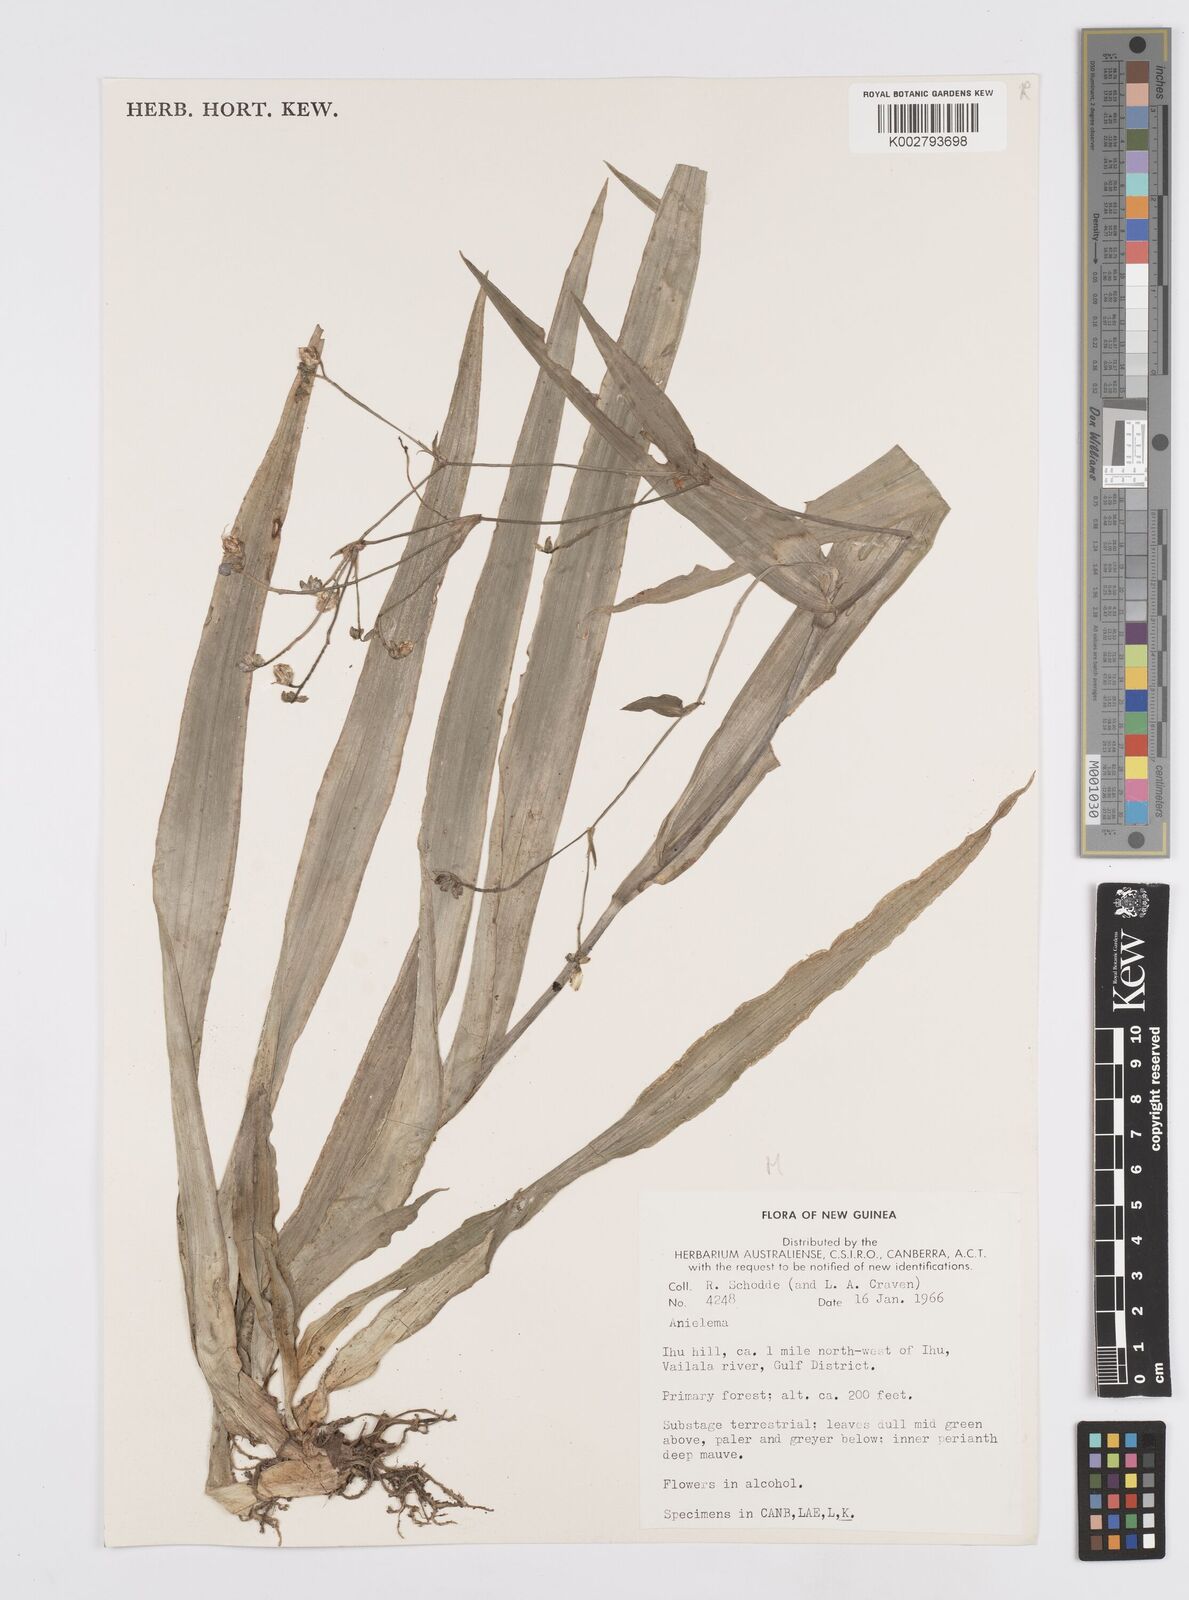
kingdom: Plantae
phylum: Tracheophyta
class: Liliopsida
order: Commelinales
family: Commelinaceae
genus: Murdannia
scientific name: Murdannia
